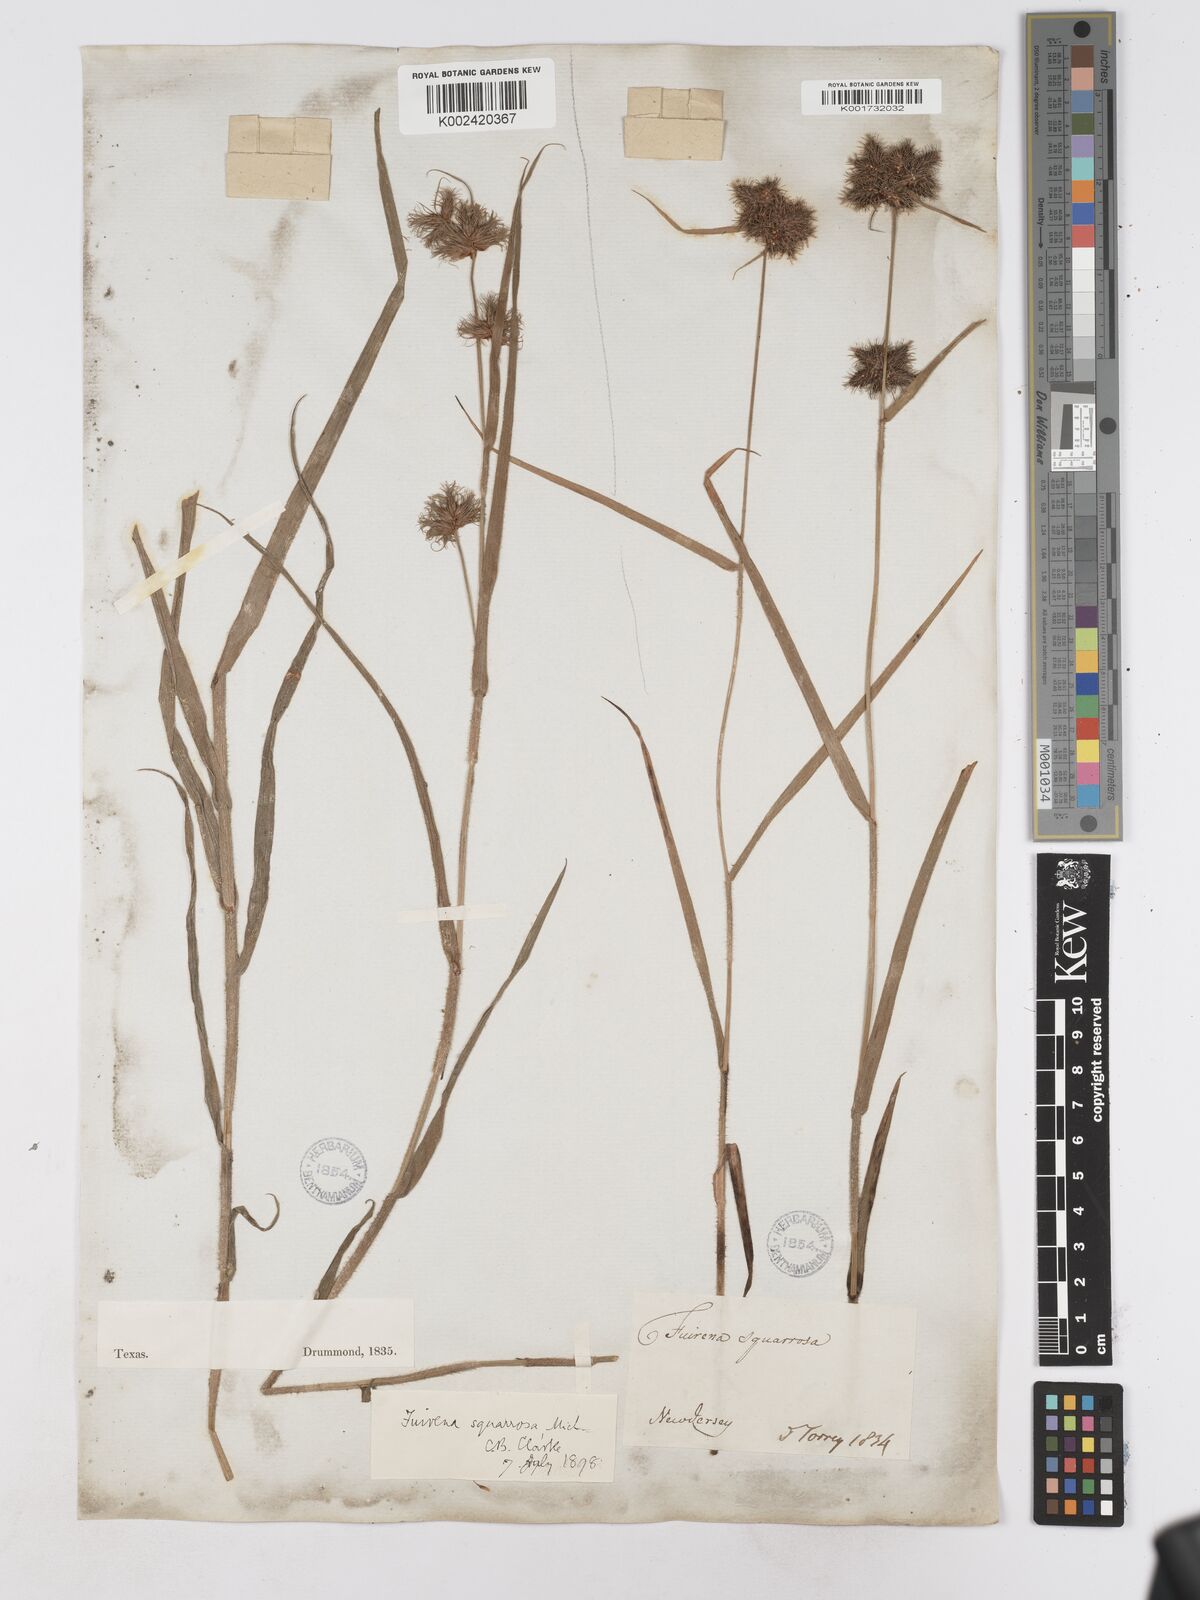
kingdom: Plantae
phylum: Tracheophyta
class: Liliopsida
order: Poales
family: Cyperaceae
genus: Fuirena
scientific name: Fuirena squarrosa
